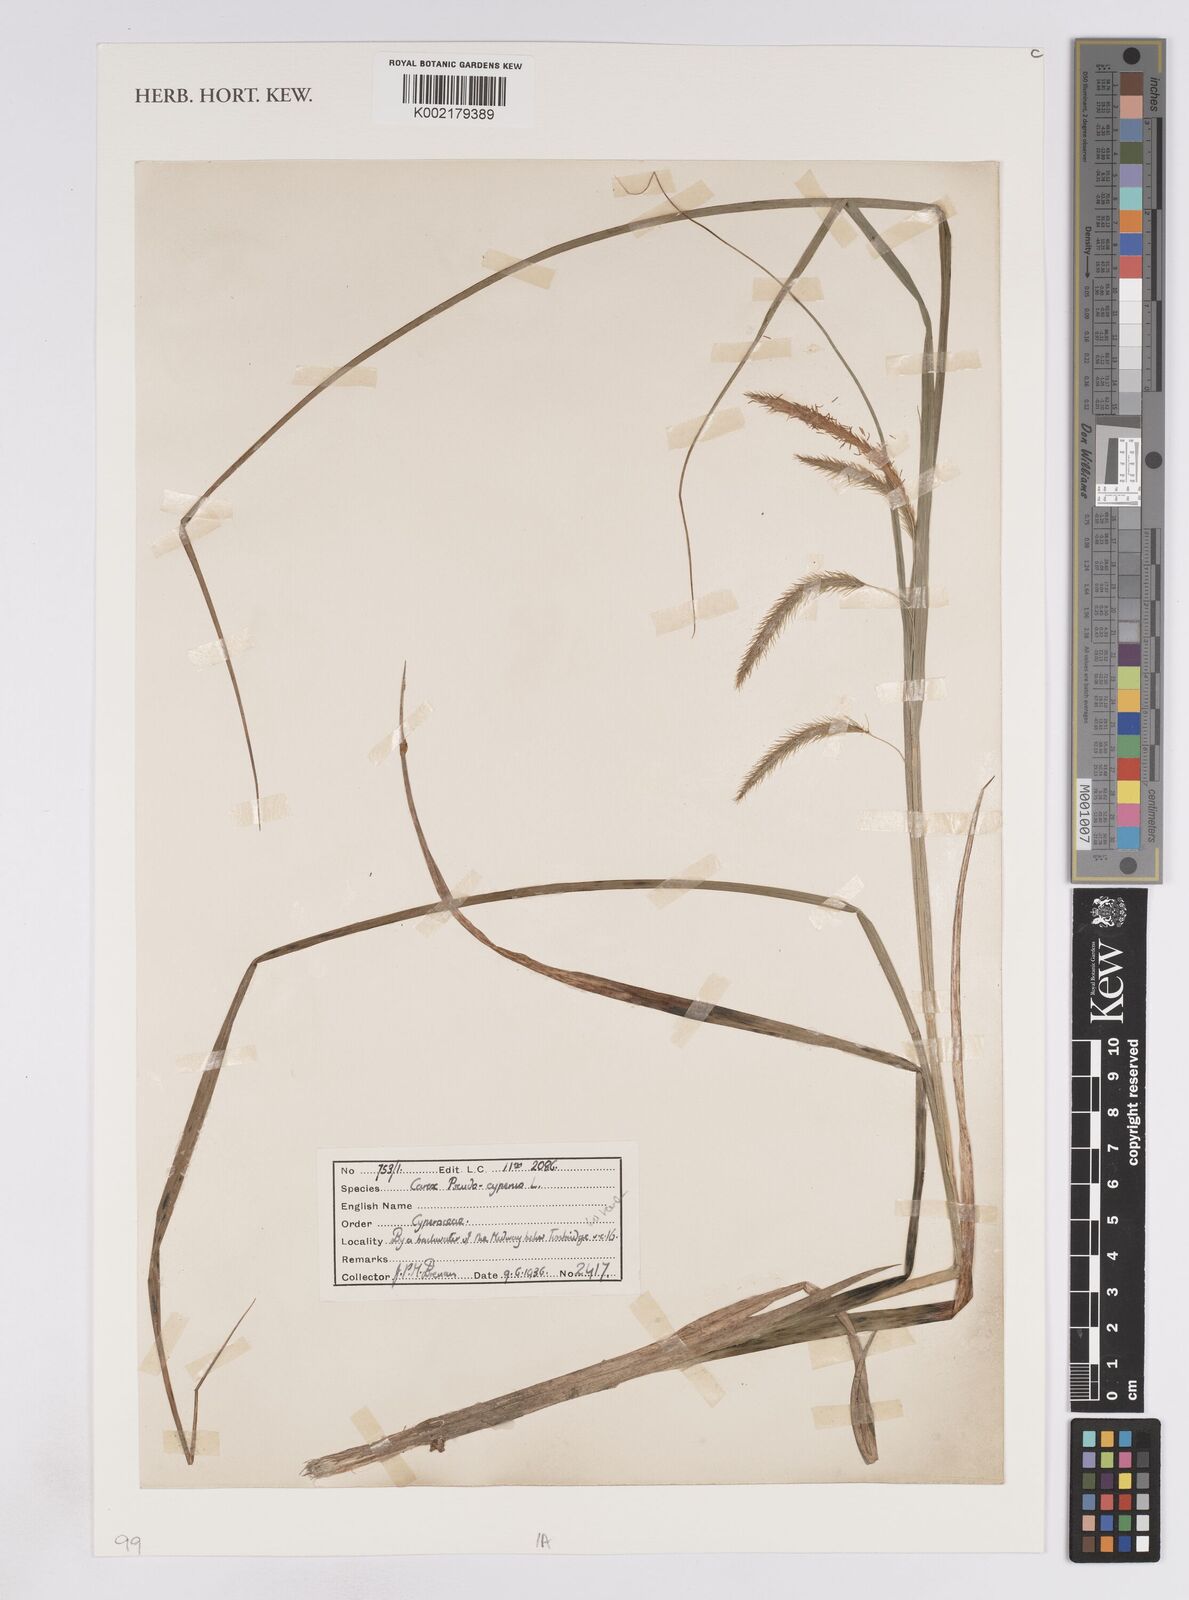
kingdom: Plantae
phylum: Tracheophyta
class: Liliopsida
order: Poales
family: Cyperaceae
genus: Carex
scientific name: Carex pseudocyperus
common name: Cyperus sedge
